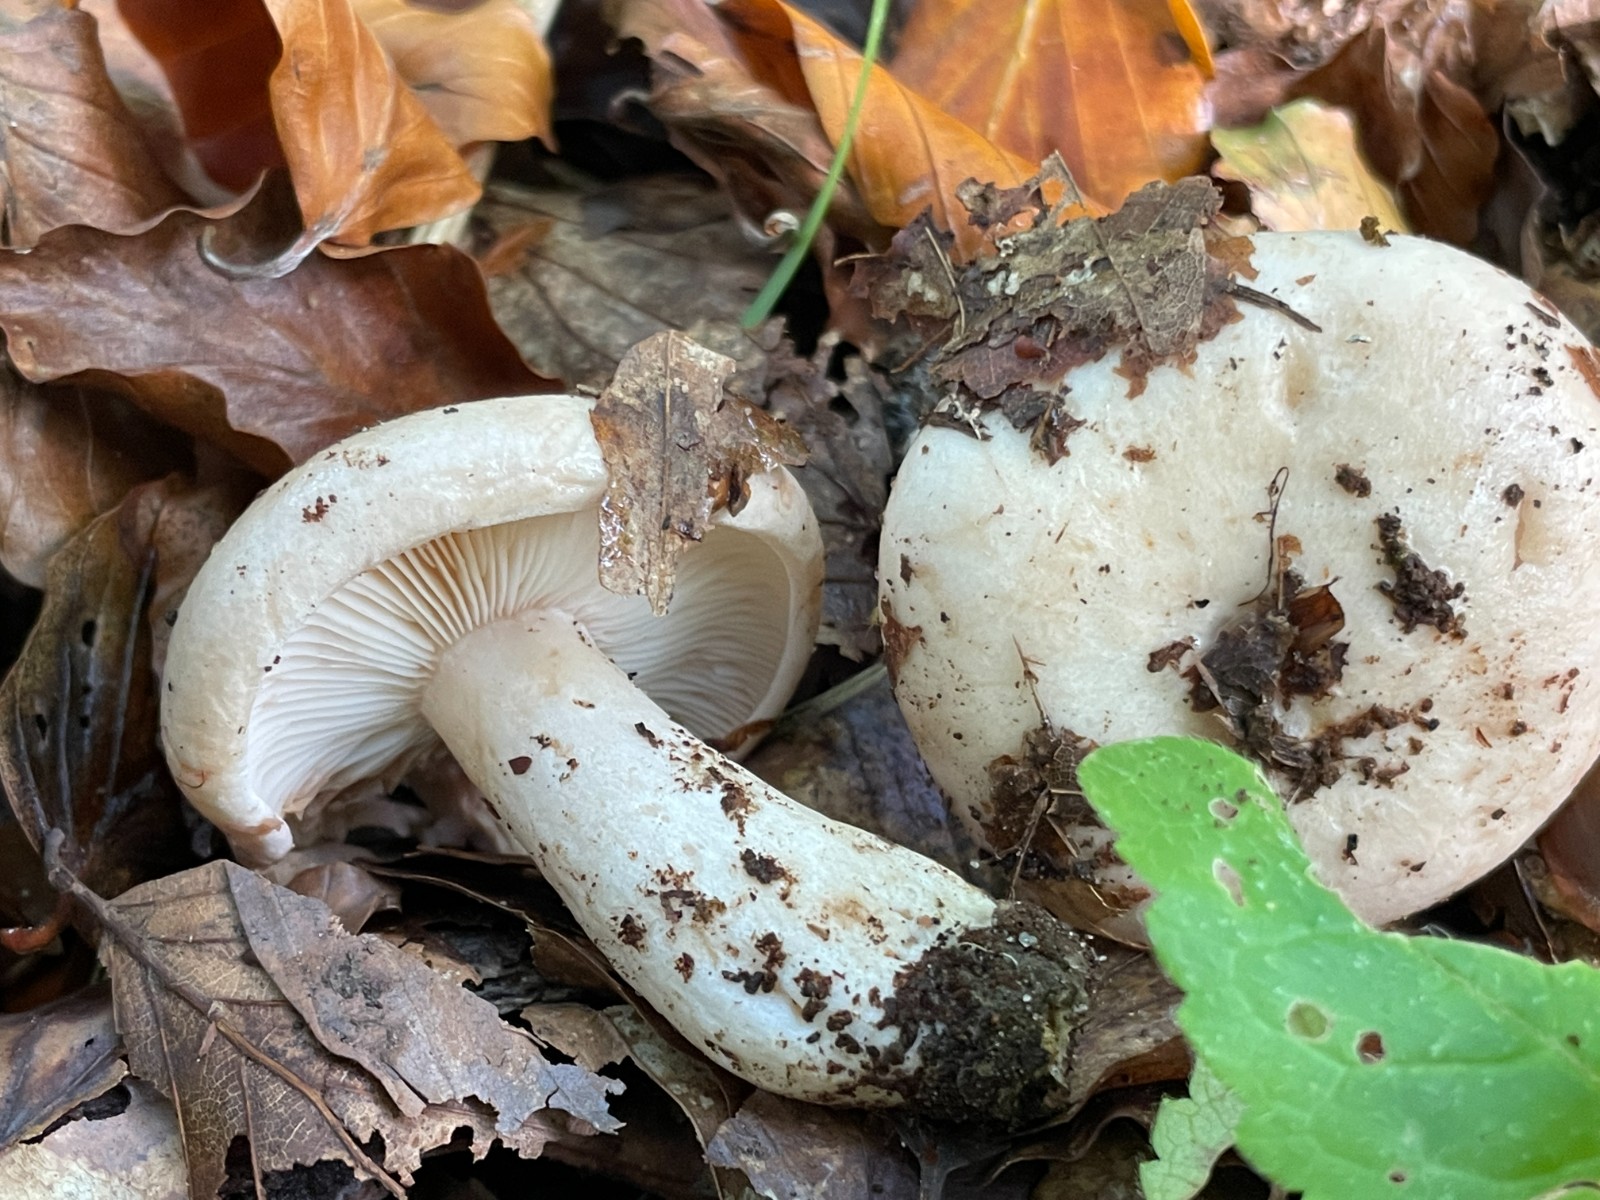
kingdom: Fungi
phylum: Basidiomycota
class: Agaricomycetes
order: Russulales
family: Russulaceae
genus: Lactarius
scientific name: Lactarius pallidus
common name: bleg mælkehat
